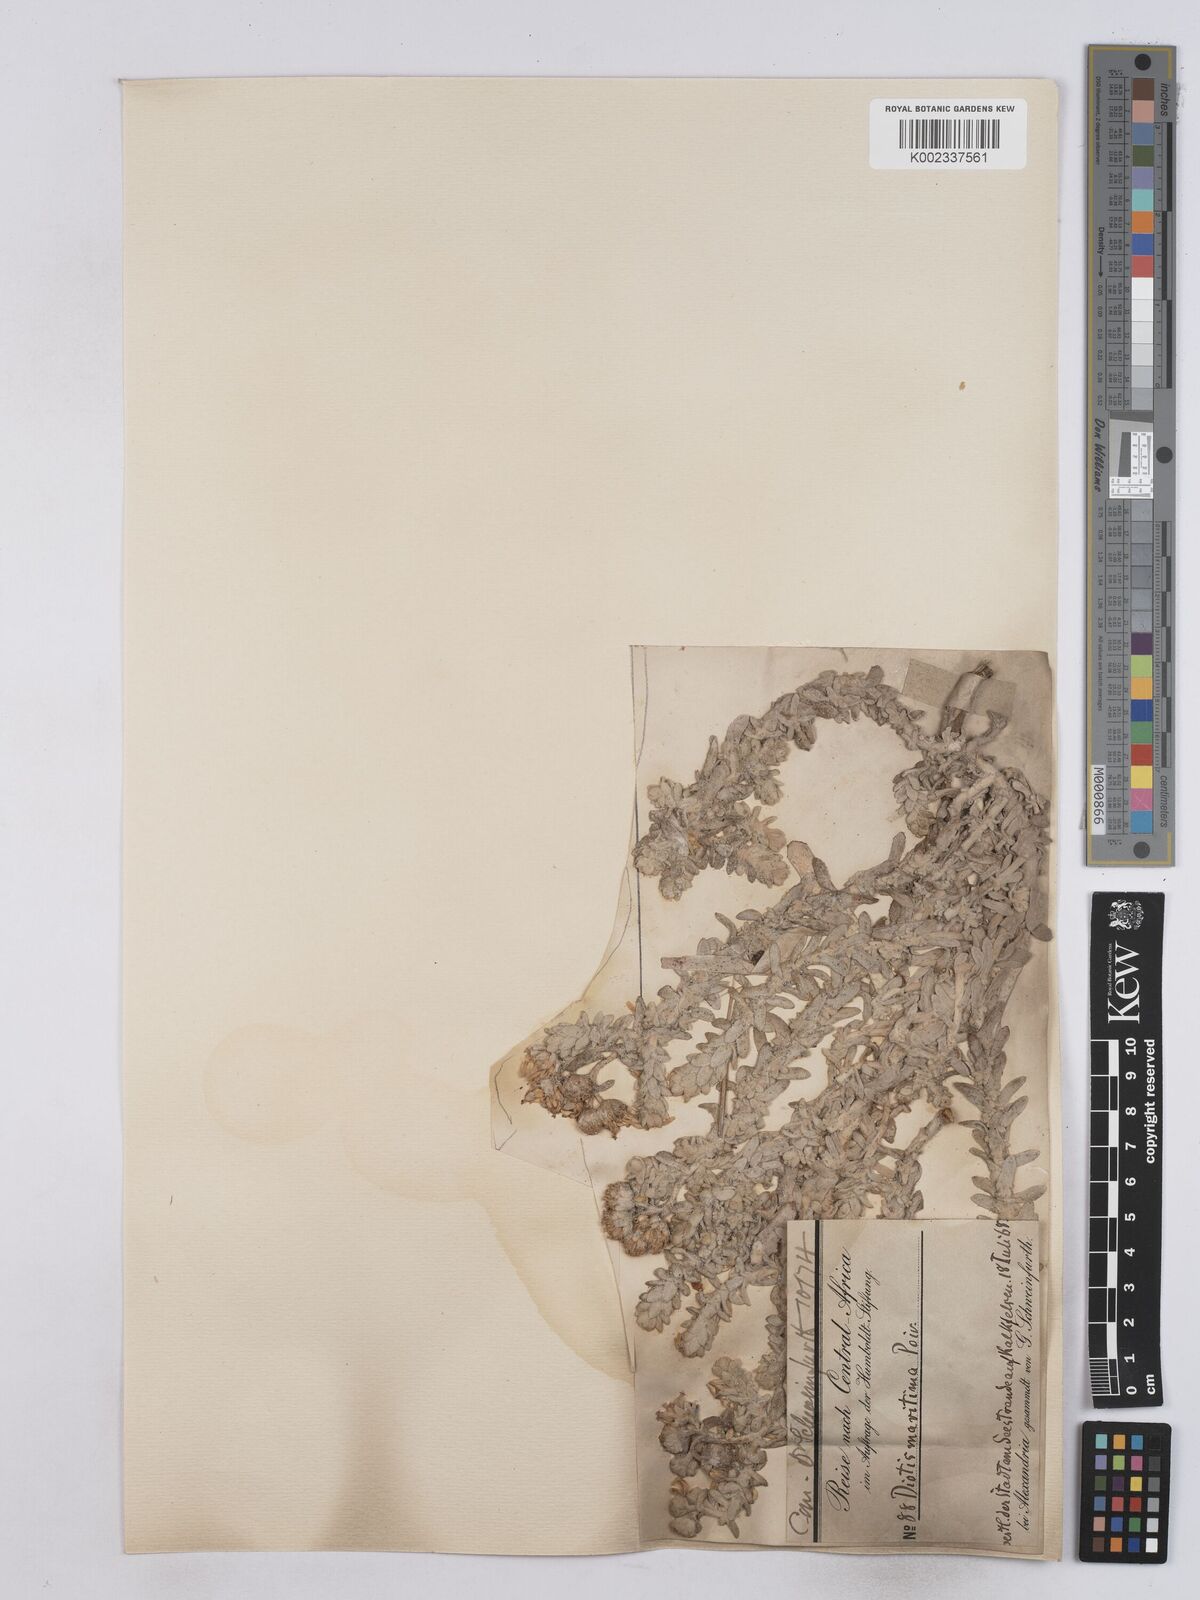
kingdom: Plantae
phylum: Tracheophyta
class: Magnoliopsida
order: Asterales
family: Asteraceae
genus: Achillea
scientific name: Achillea maritima
